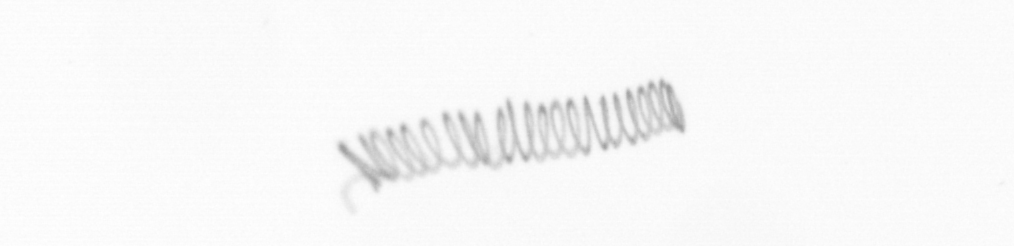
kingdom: Chromista
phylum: Ochrophyta
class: Bacillariophyceae
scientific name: Bacillariophyceae
